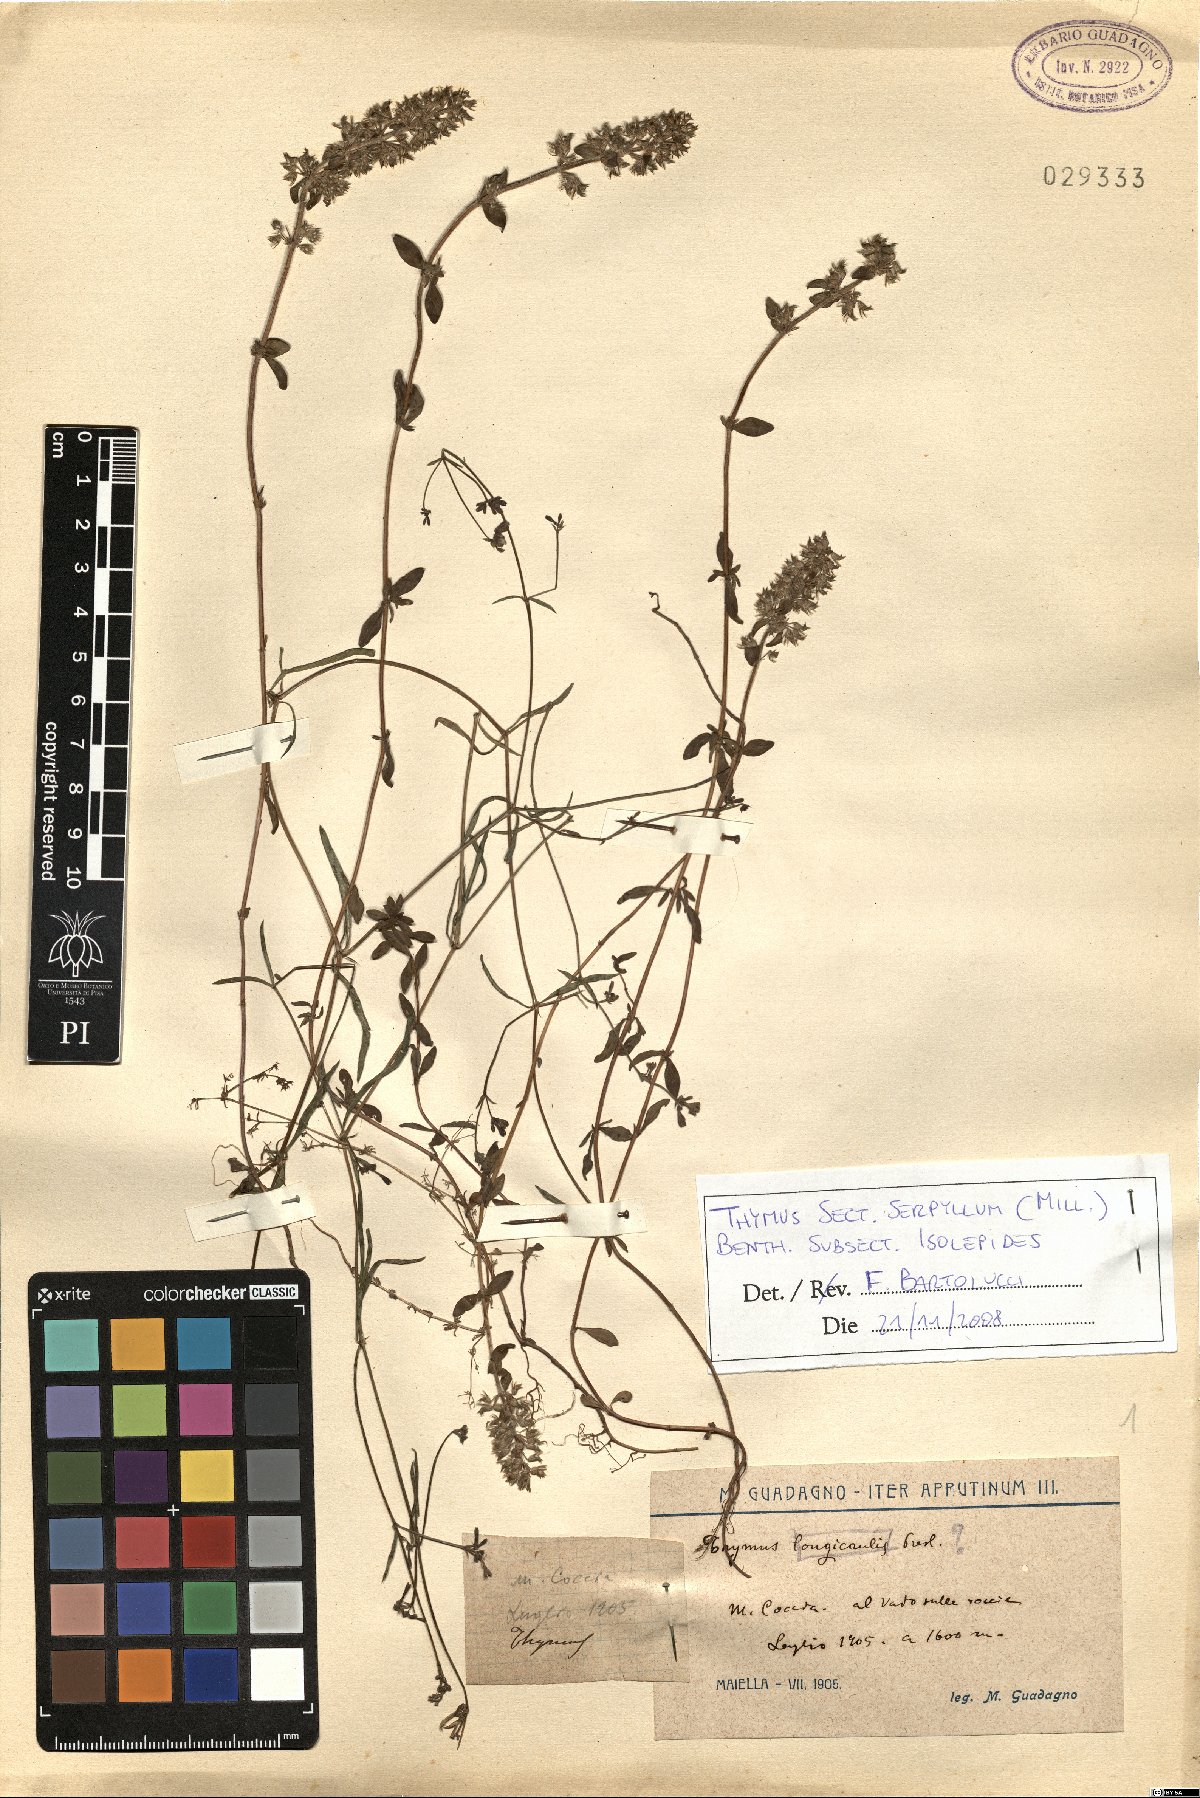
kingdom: Plantae
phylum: Tracheophyta
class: Magnoliopsida
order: Lamiales
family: Lamiaceae
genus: Thymus
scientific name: Thymus serpyllum
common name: Breckland thyme
